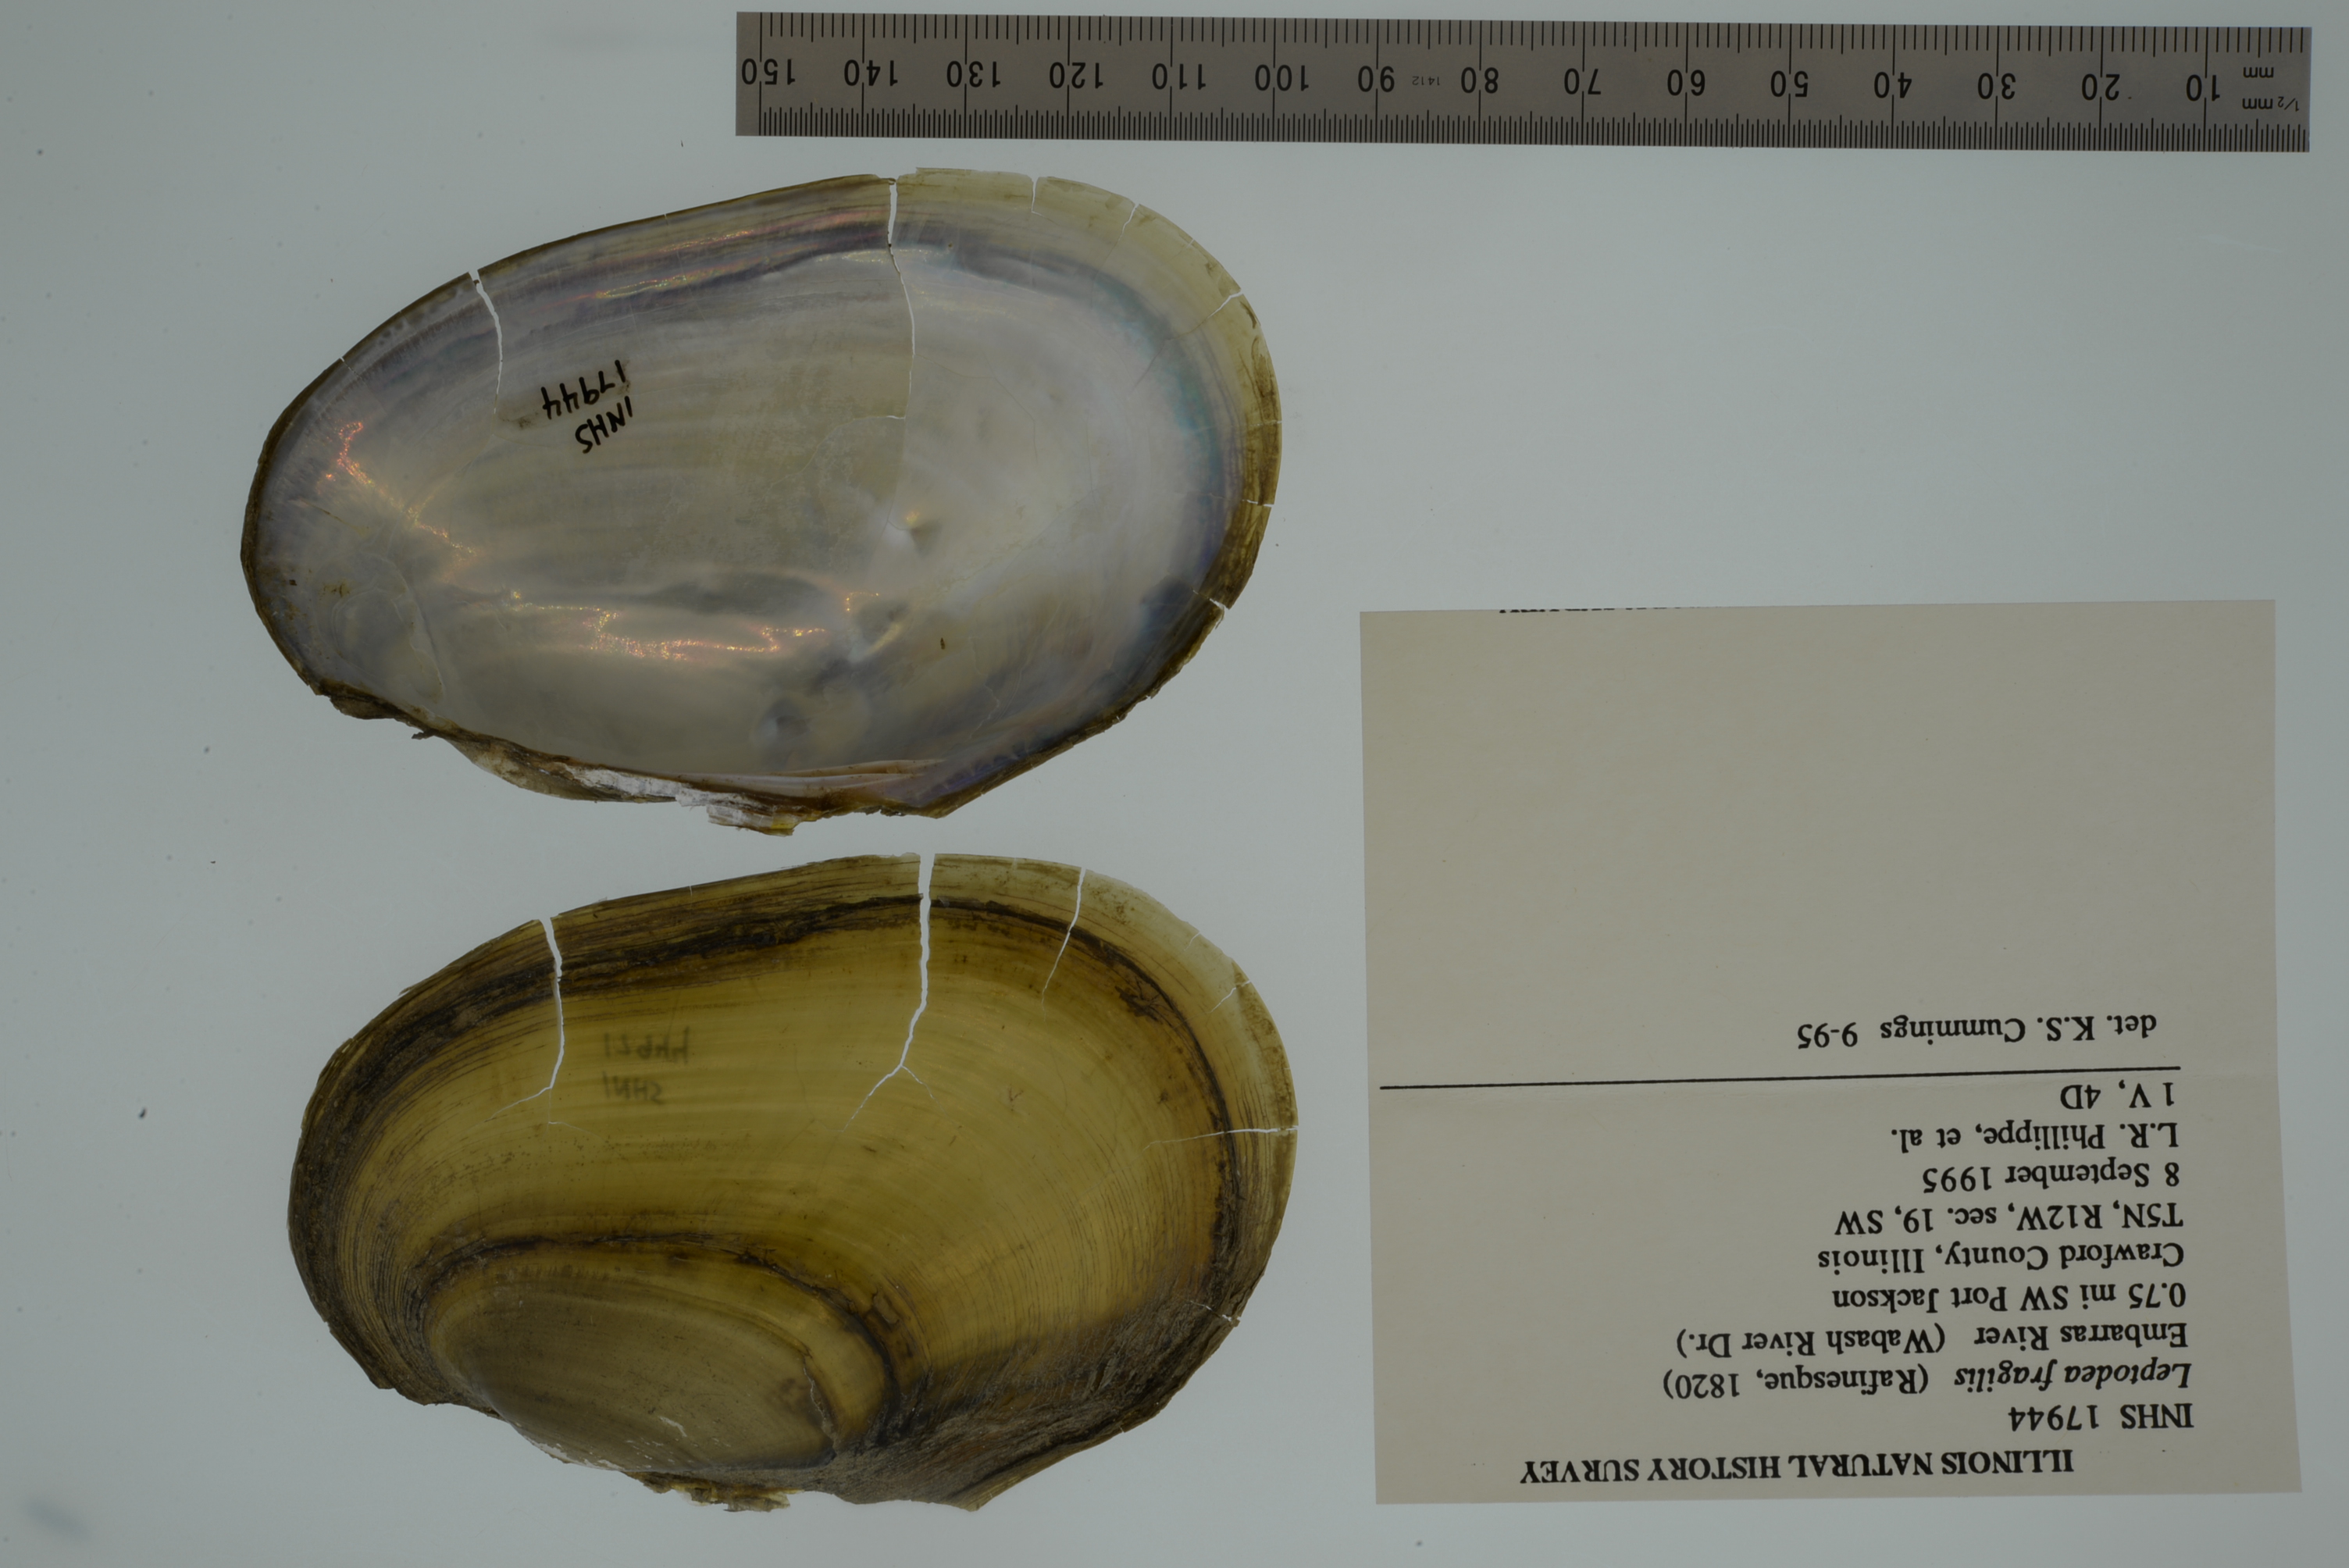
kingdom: Animalia
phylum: Mollusca
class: Bivalvia
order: Unionida
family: Unionidae
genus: Potamilus
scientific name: Potamilus fragilis
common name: Fragile papershell
